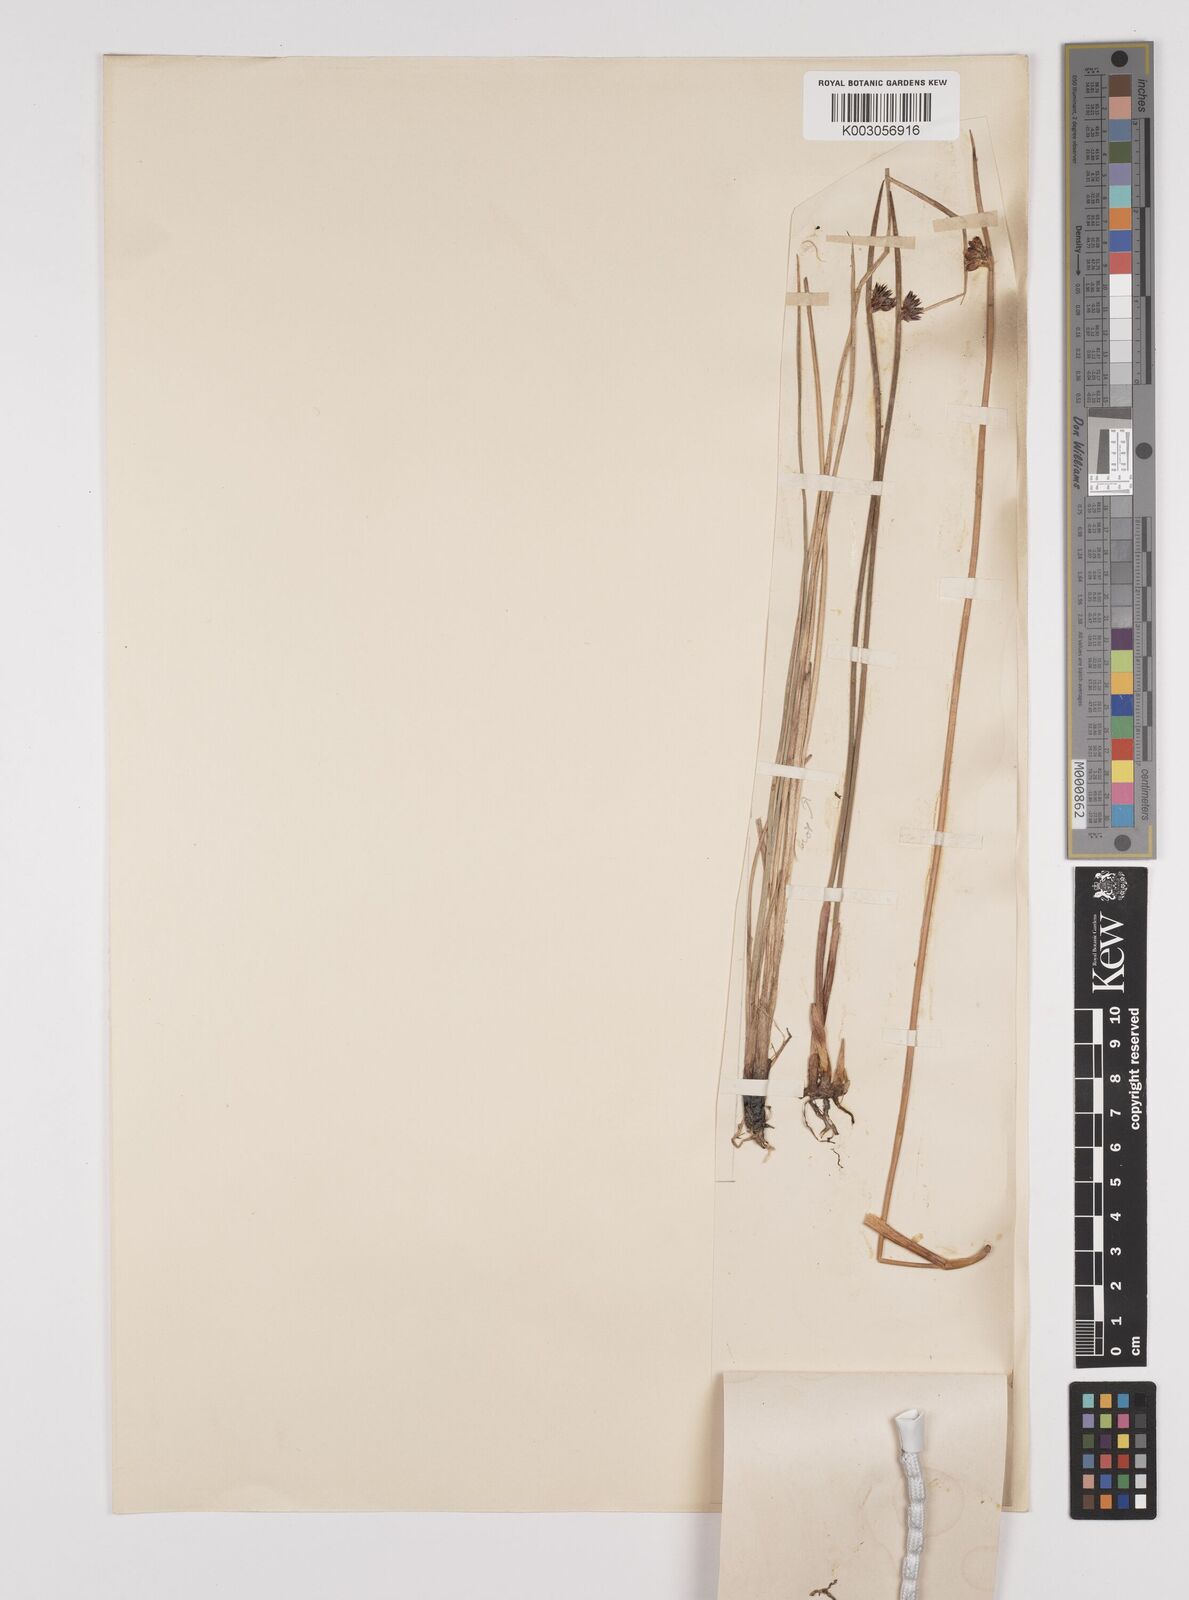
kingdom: Plantae
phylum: Tracheophyta
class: Liliopsida
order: Poales
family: Juncaceae
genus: Juncus
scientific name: Juncus arcticus
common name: Arctic rush
